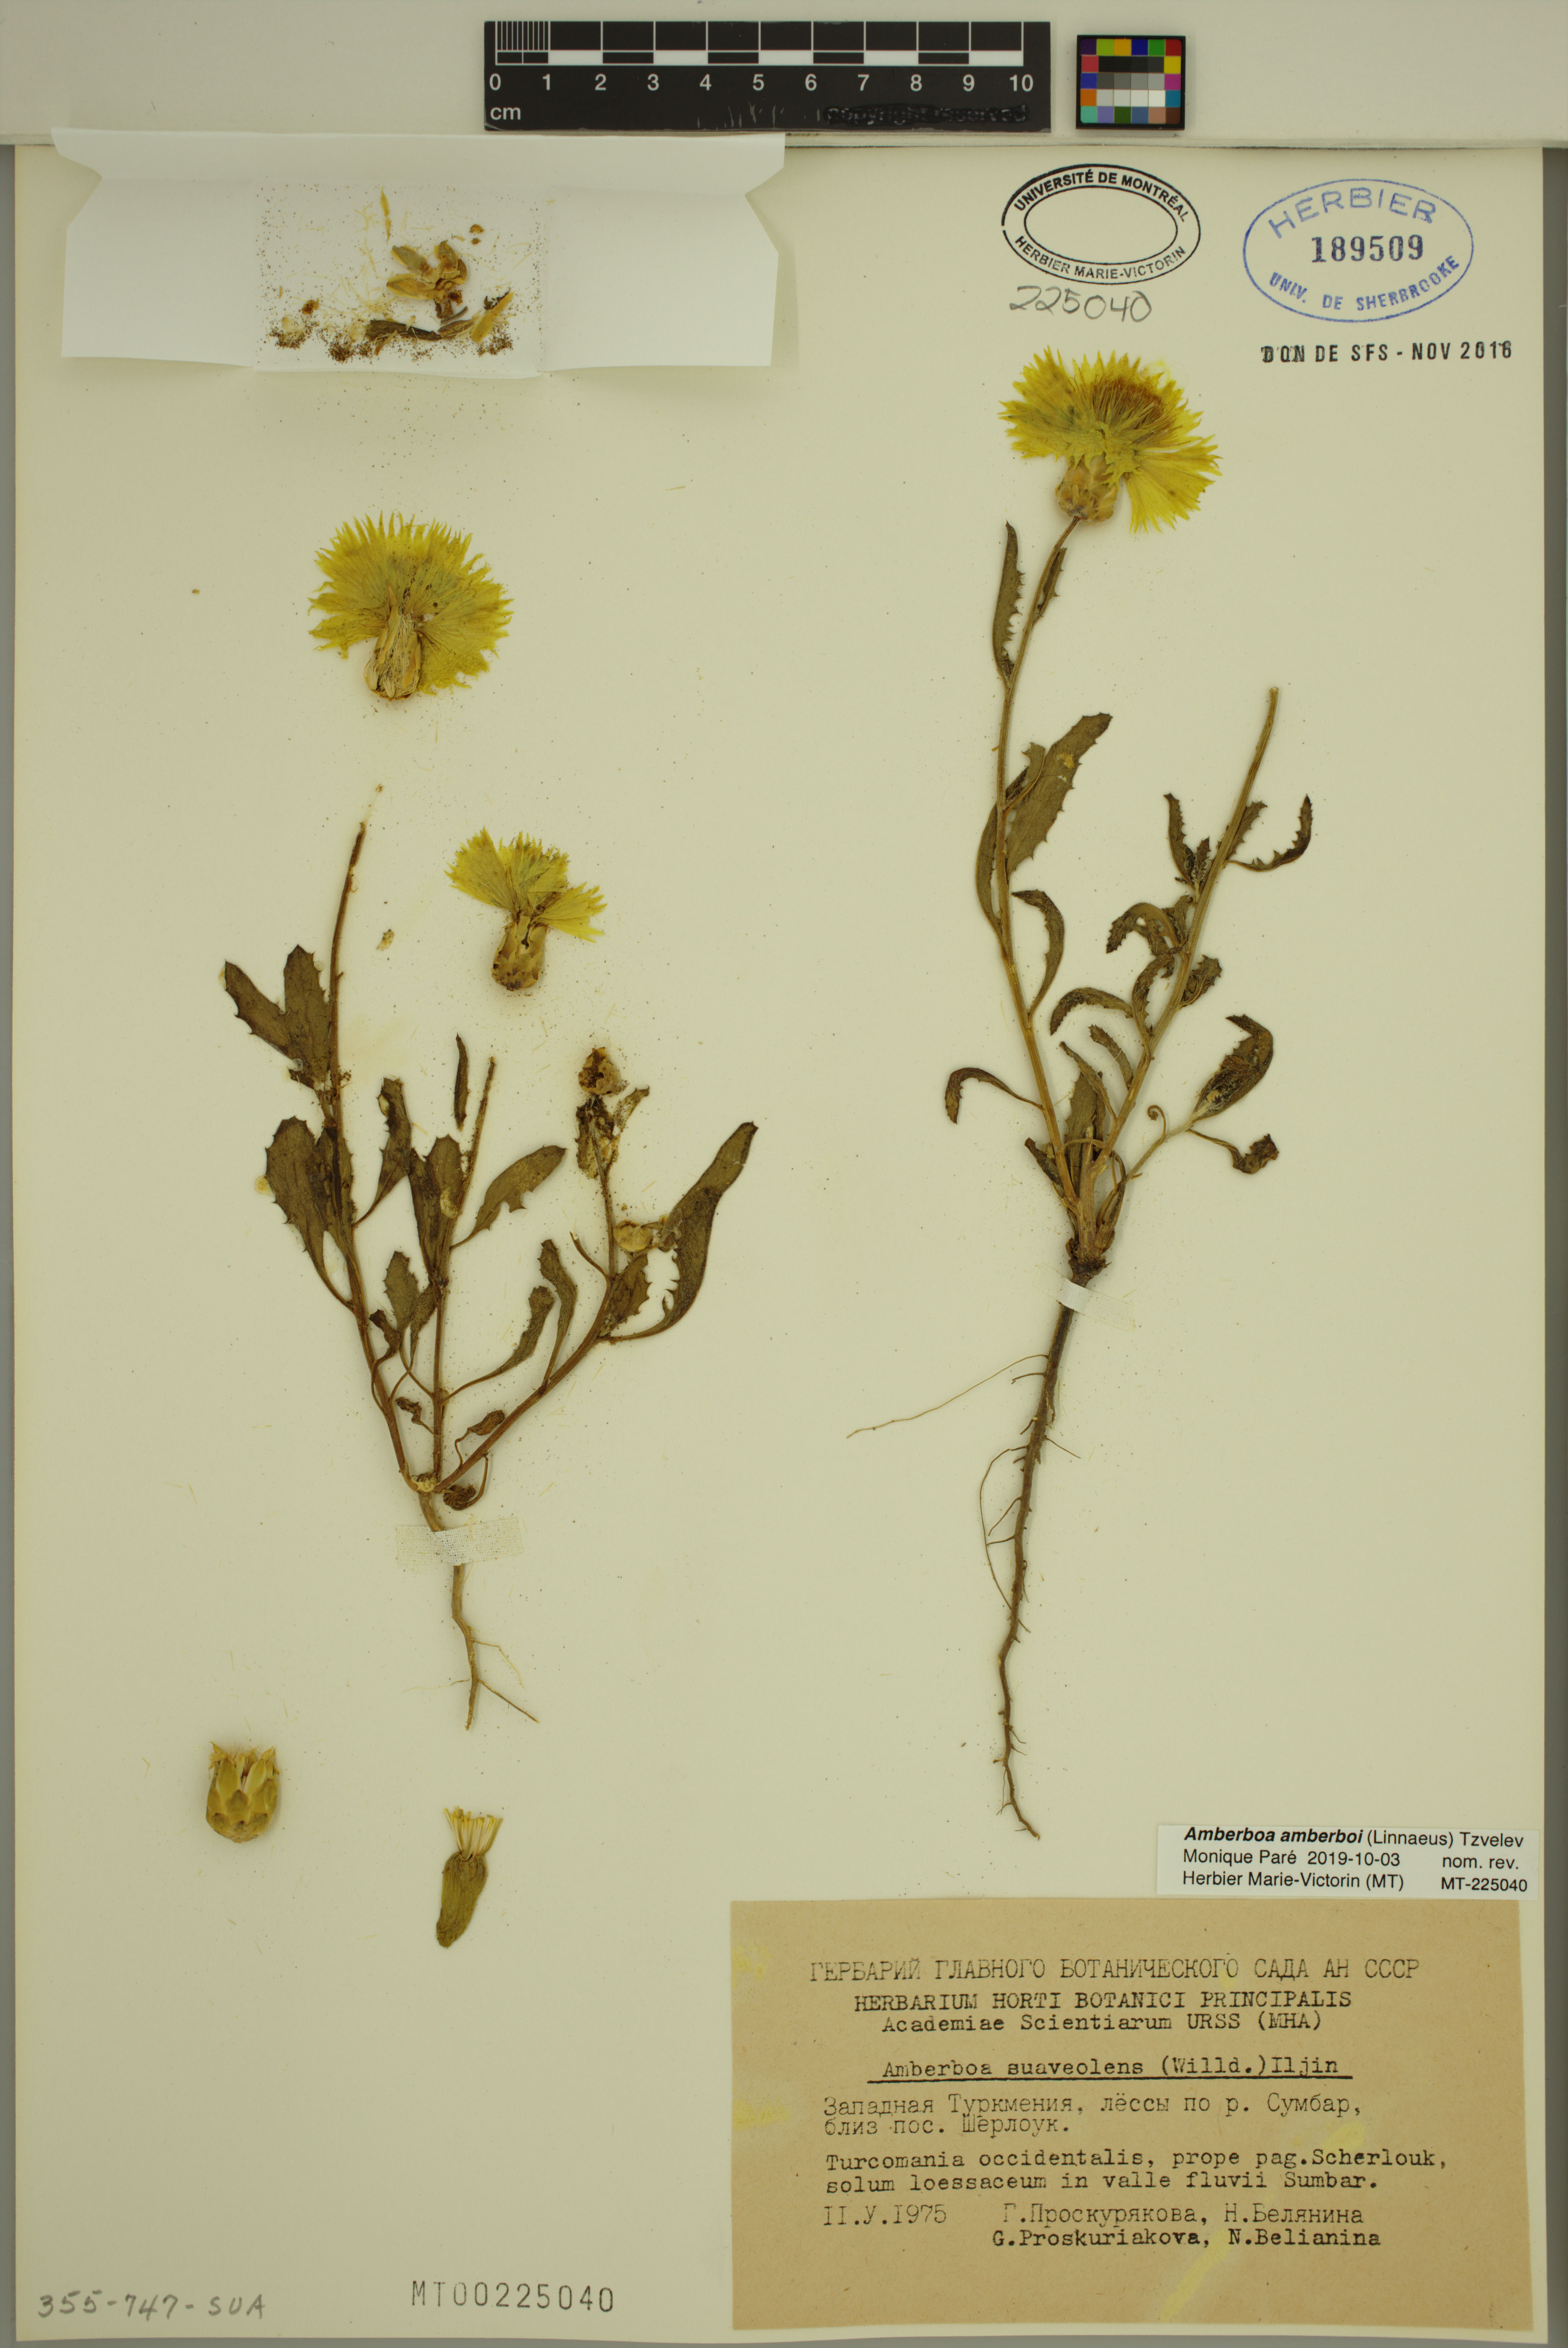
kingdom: Plantae
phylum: Tracheophyta
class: Magnoliopsida
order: Asterales
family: Asteraceae
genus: Amberboa
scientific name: Amberboa amberboi
